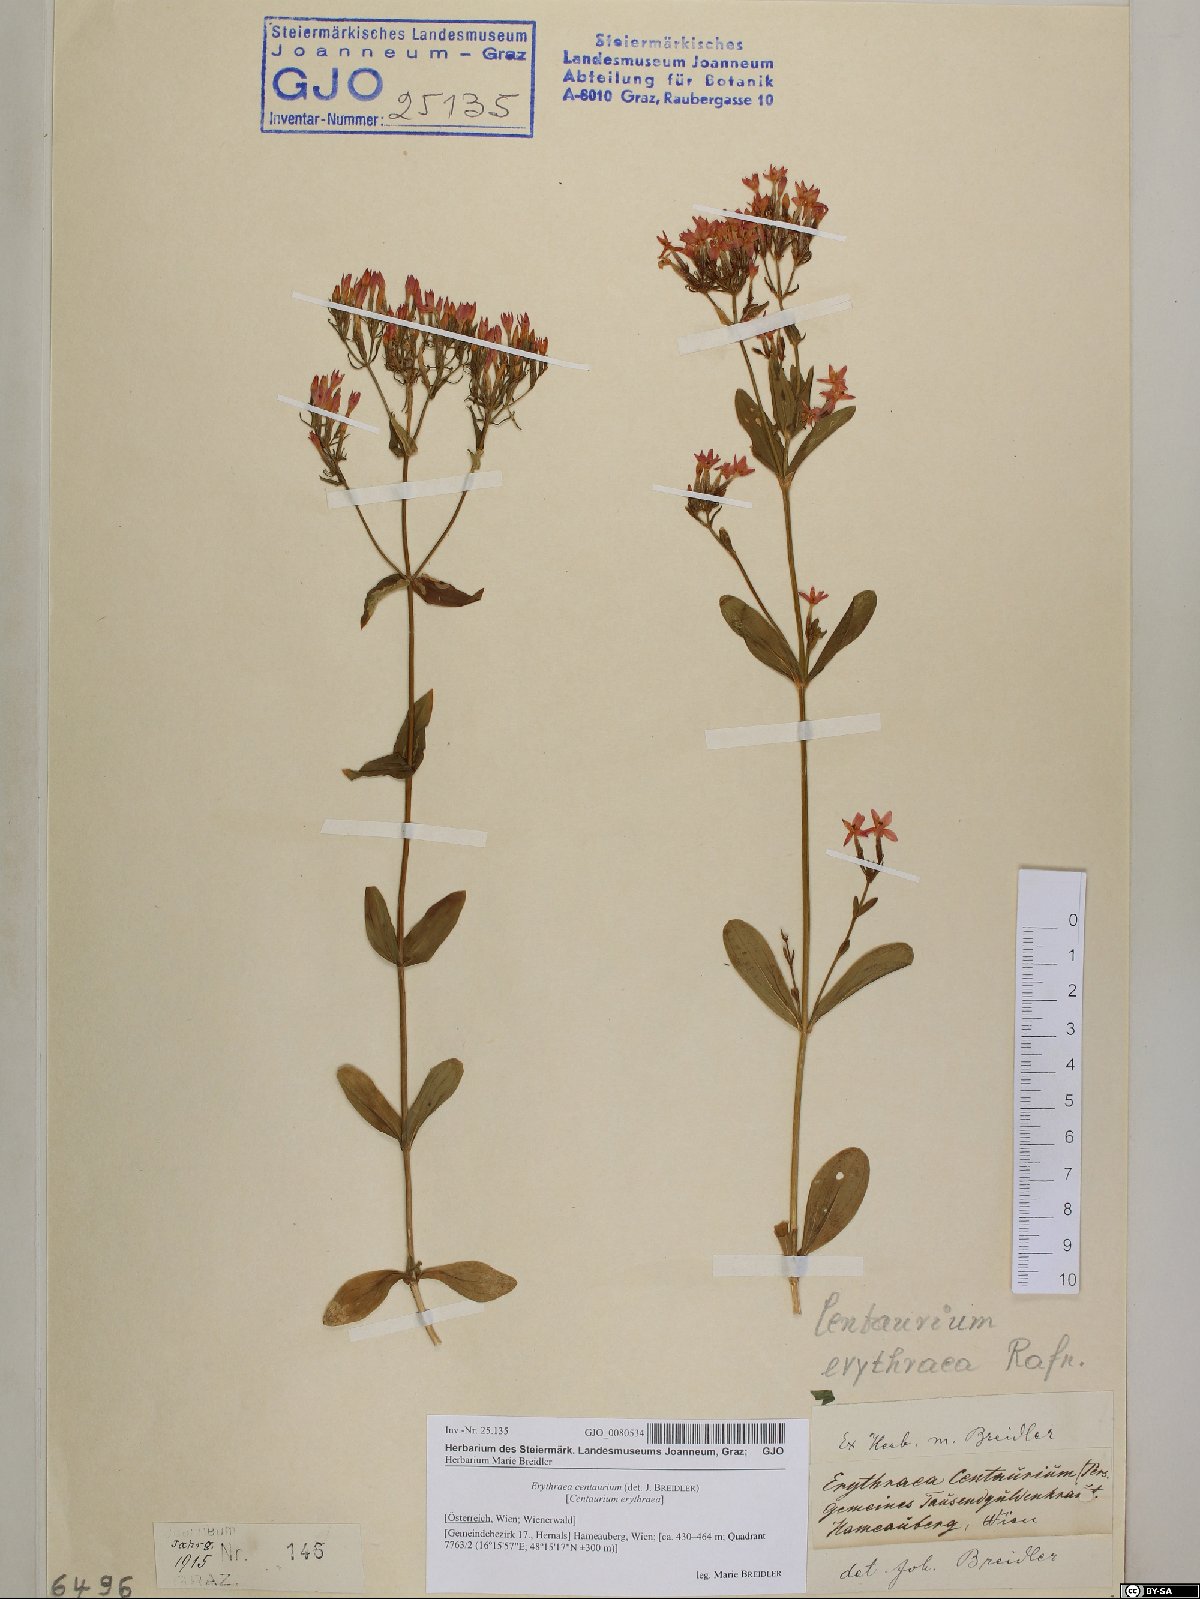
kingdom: Plantae
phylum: Tracheophyta
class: Magnoliopsida
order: Gentianales
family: Gentianaceae
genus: Centaurium
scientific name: Centaurium erythraea
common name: Common centaury
